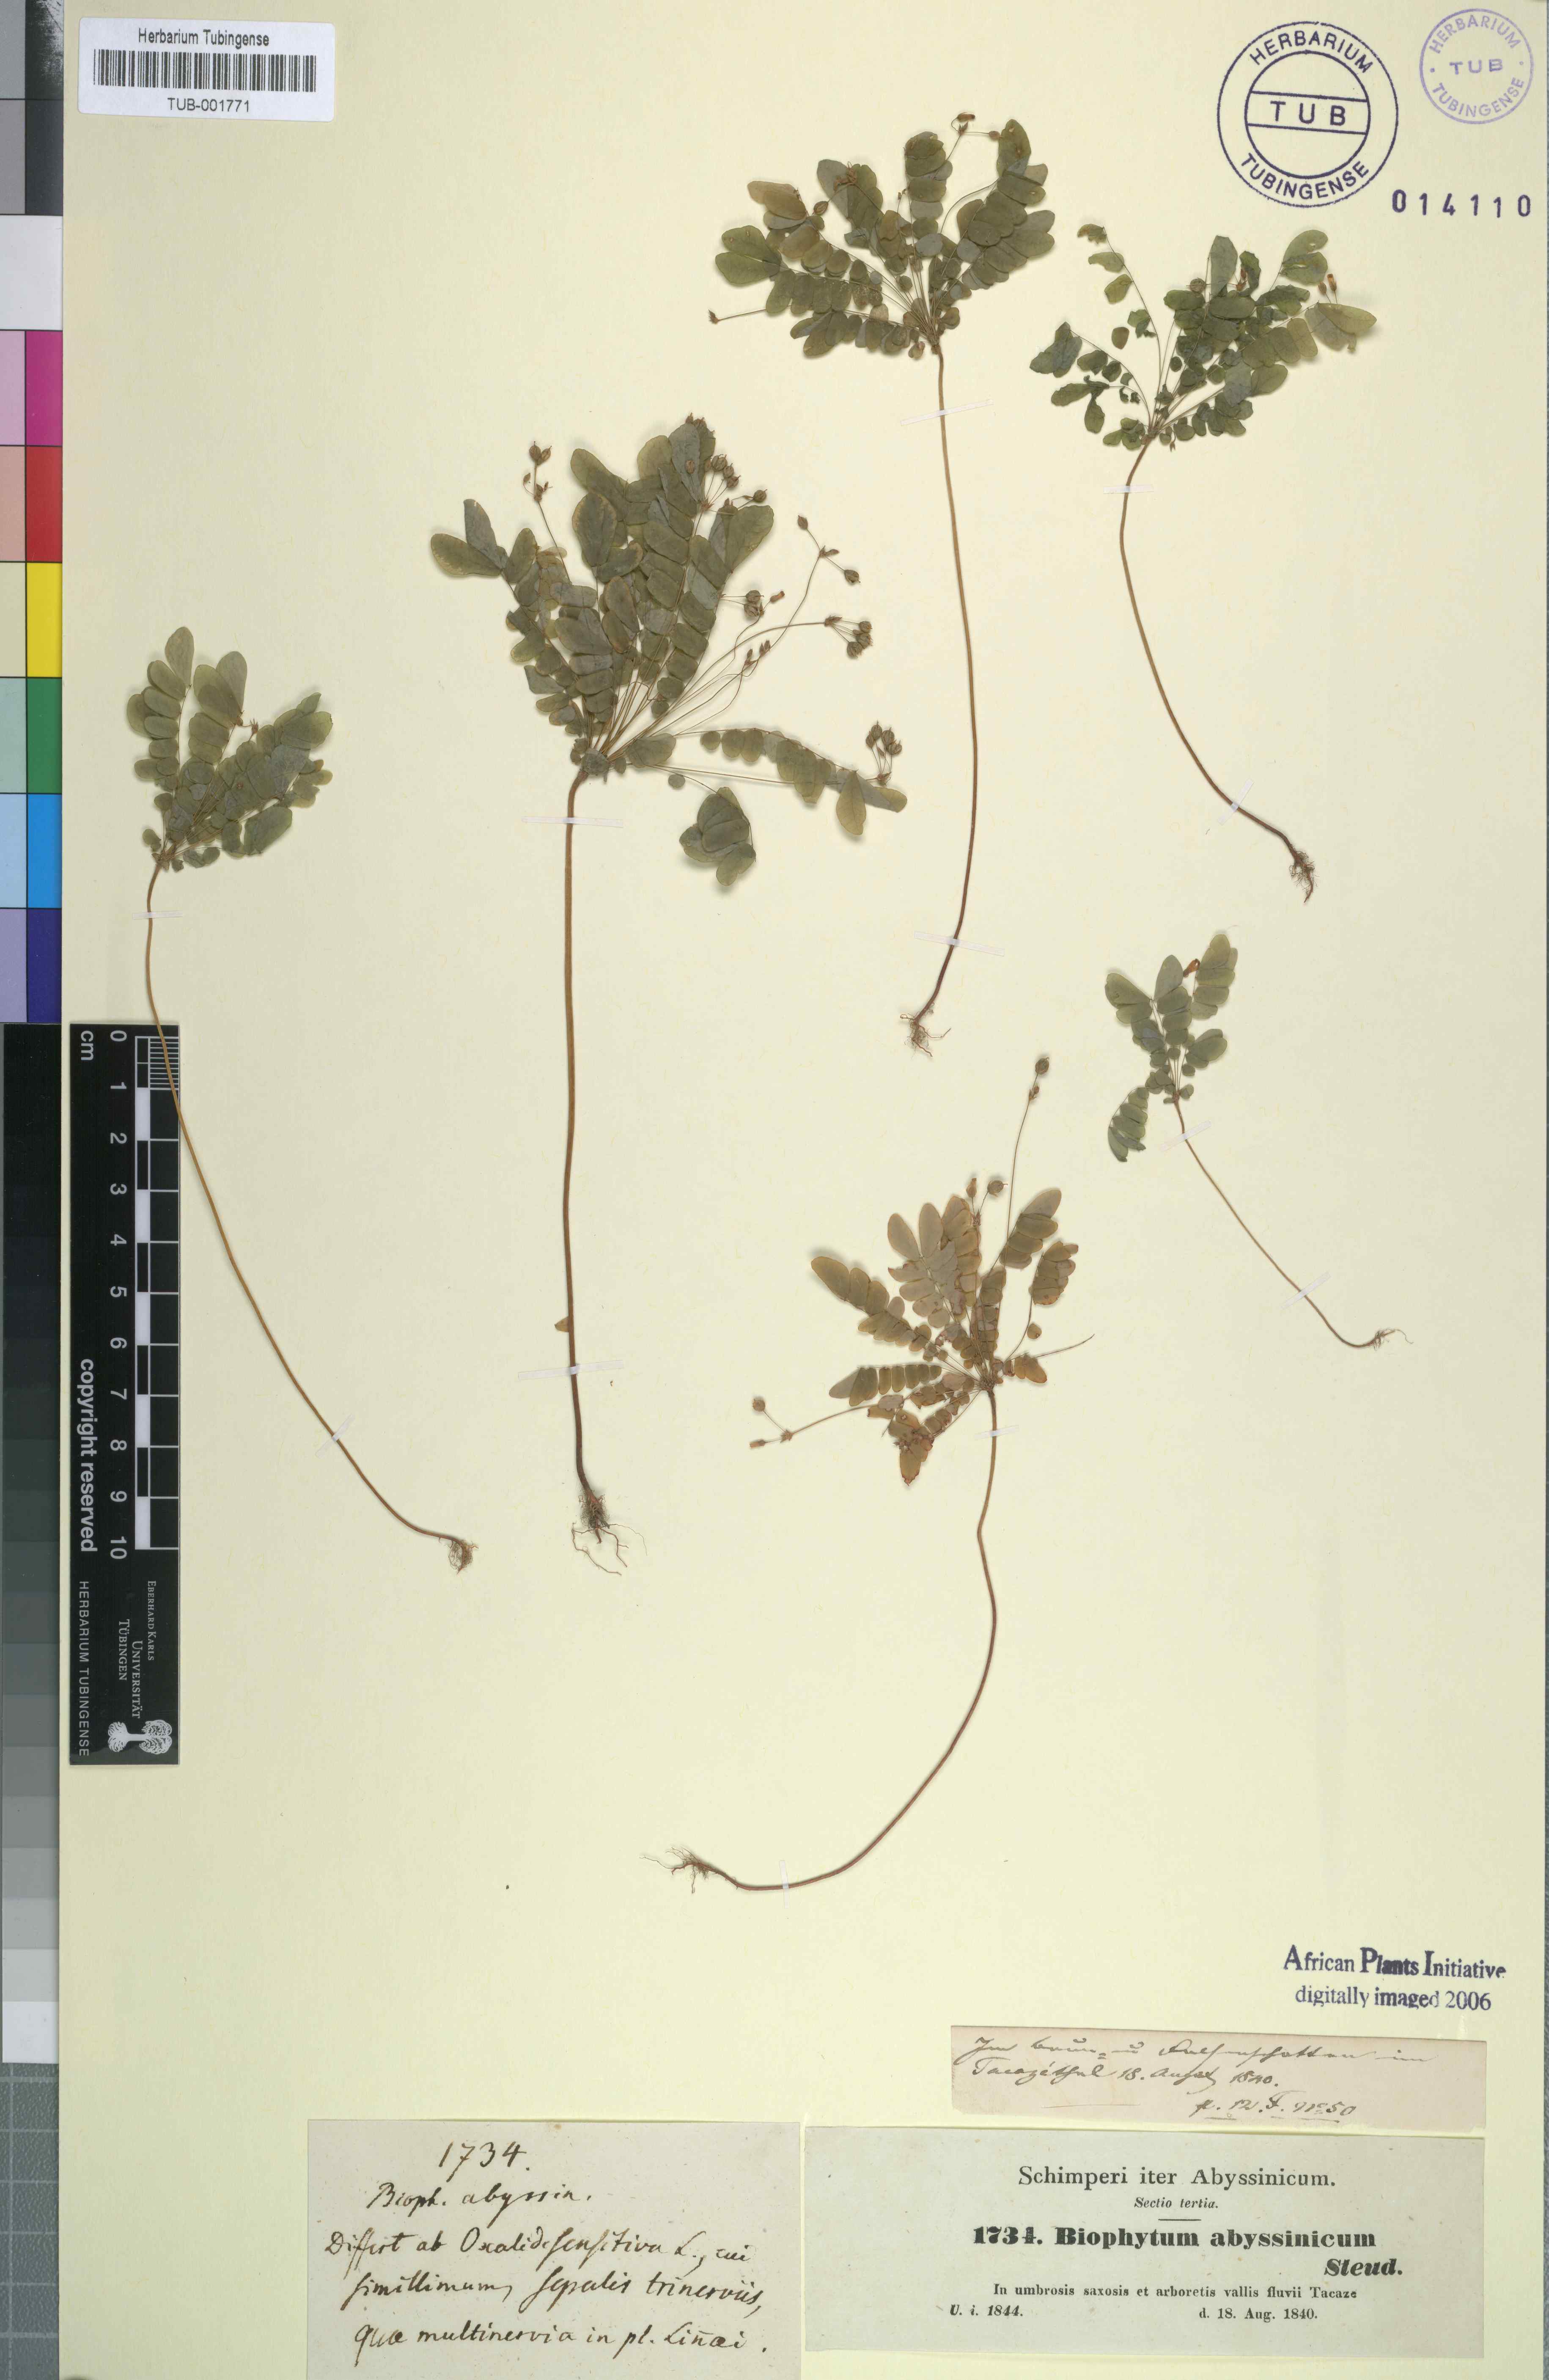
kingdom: Plantae
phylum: Tracheophyta
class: Magnoliopsida
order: Oxalidales
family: Oxalidaceae
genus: Biophytum
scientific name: Biophytum abyssinicum
